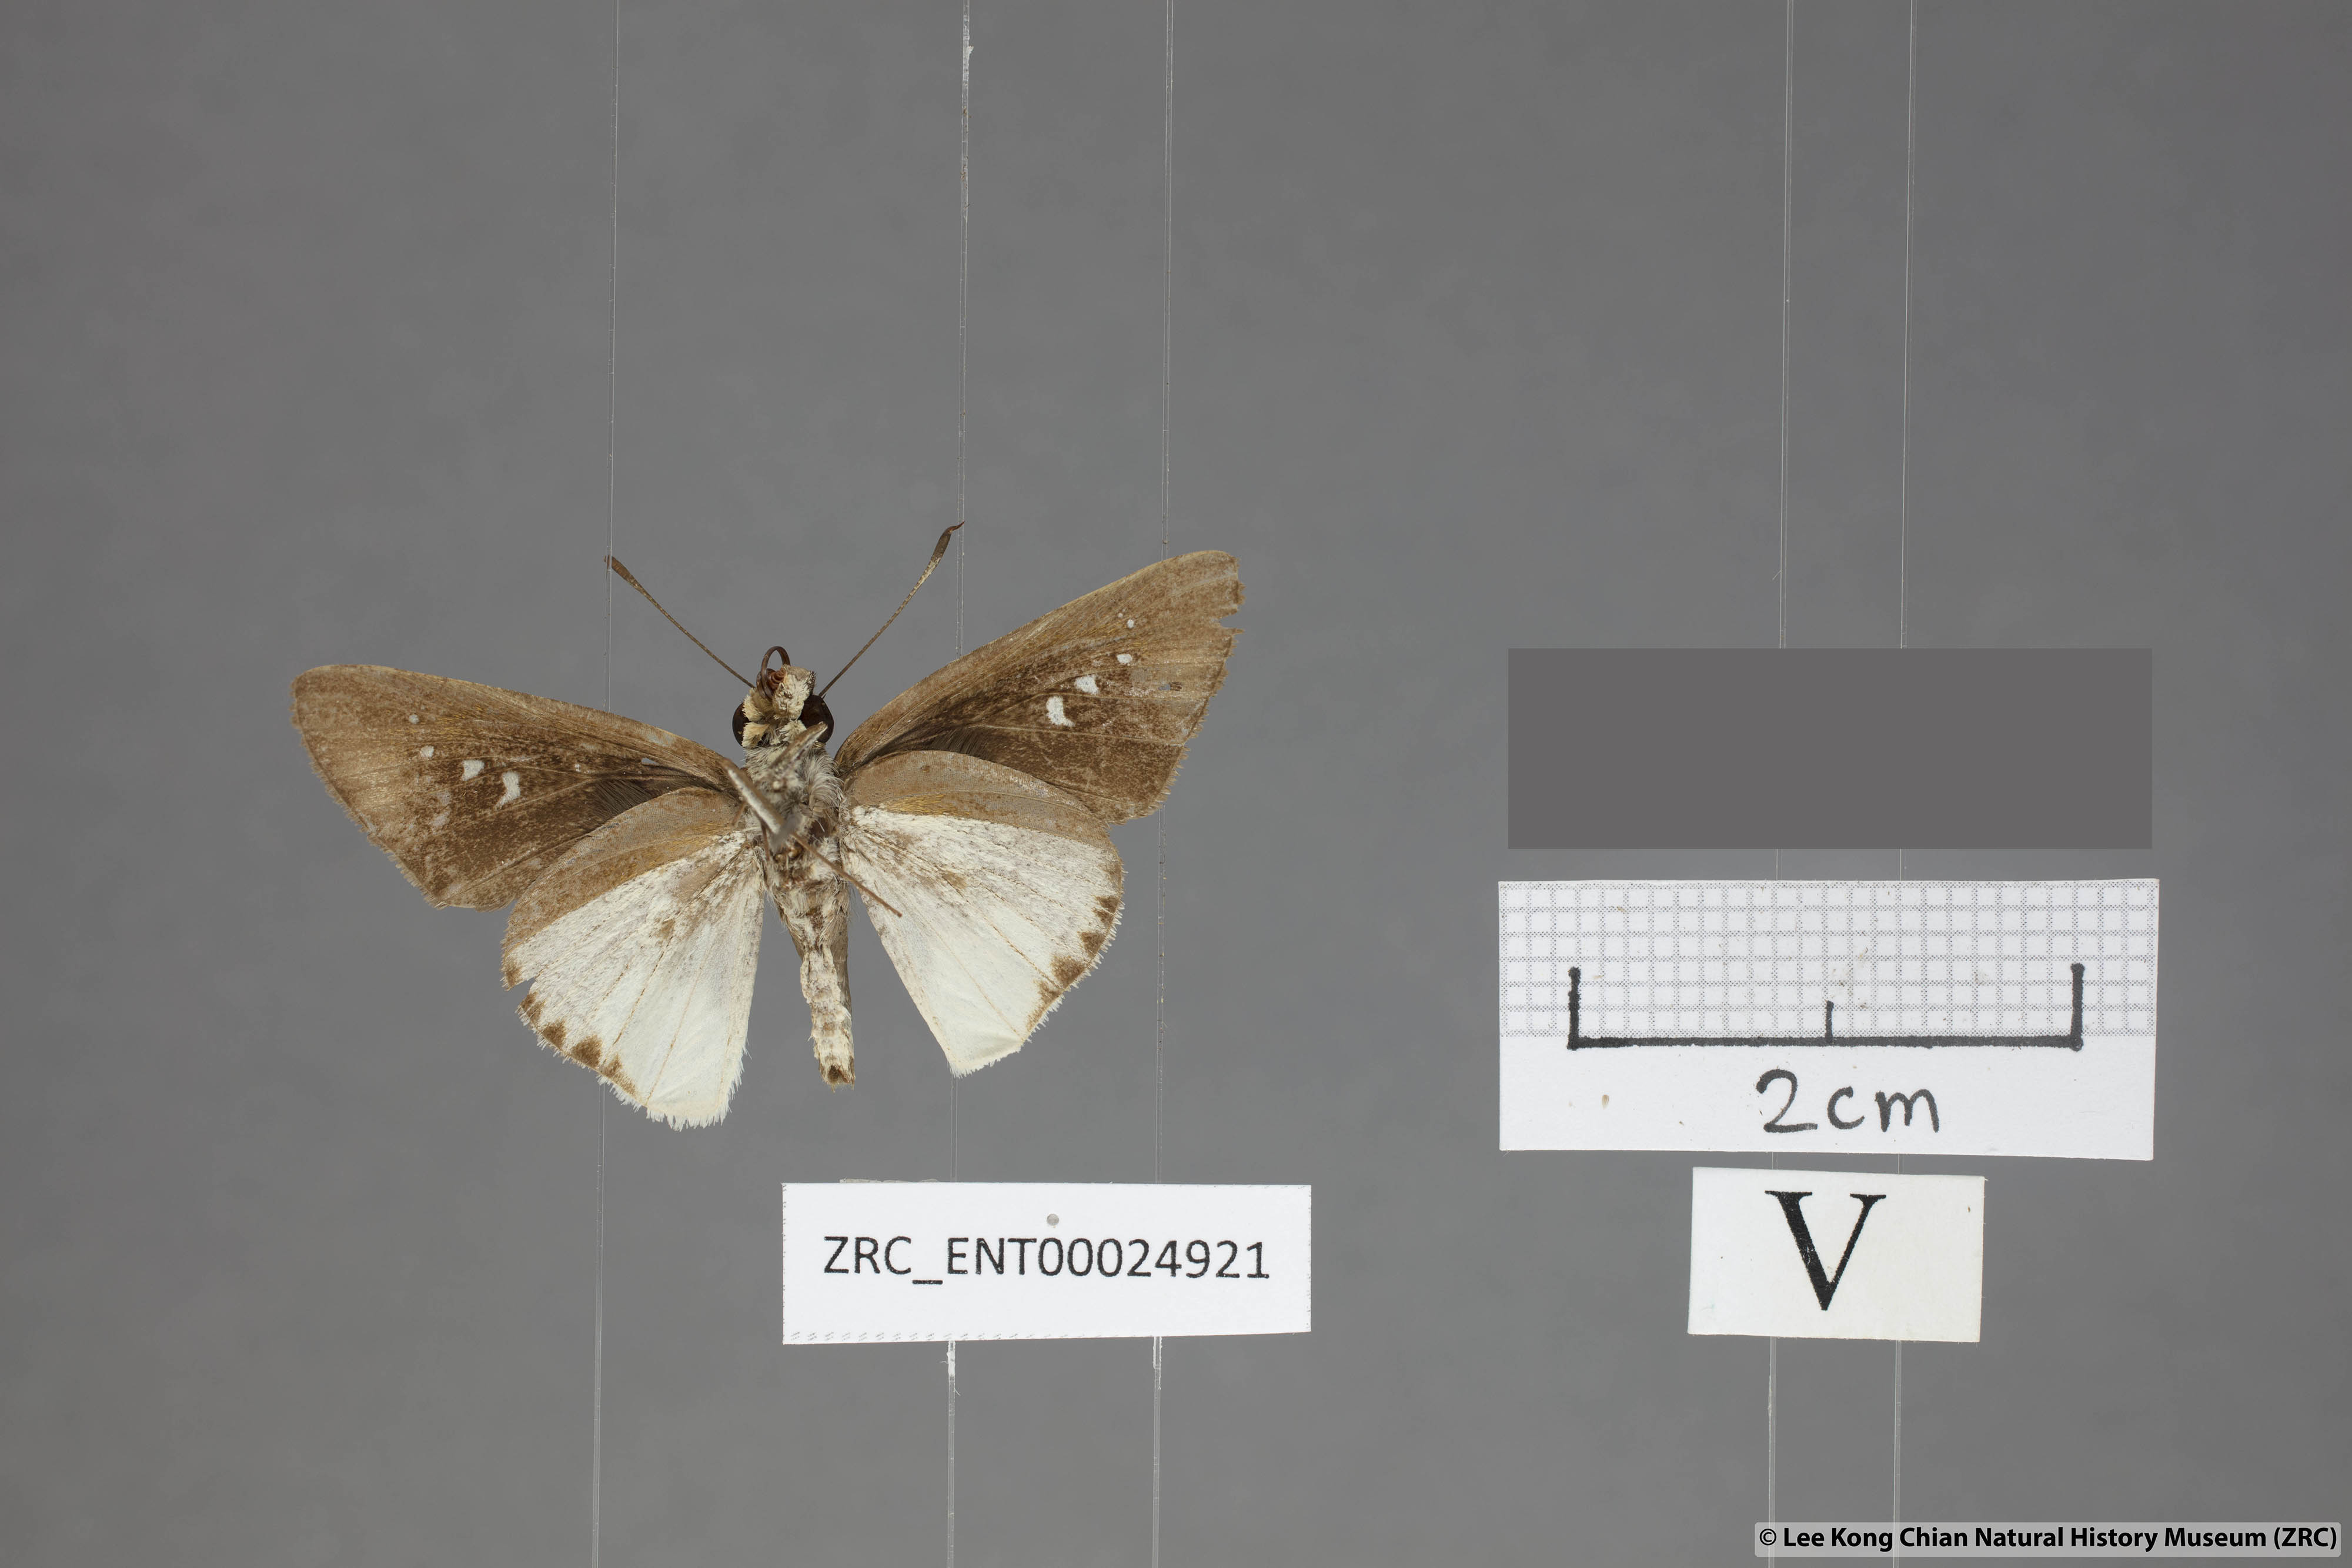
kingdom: Animalia
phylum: Arthropoda
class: Insecta
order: Lepidoptera
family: Hesperiidae
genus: Iton
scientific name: Iton semamora
